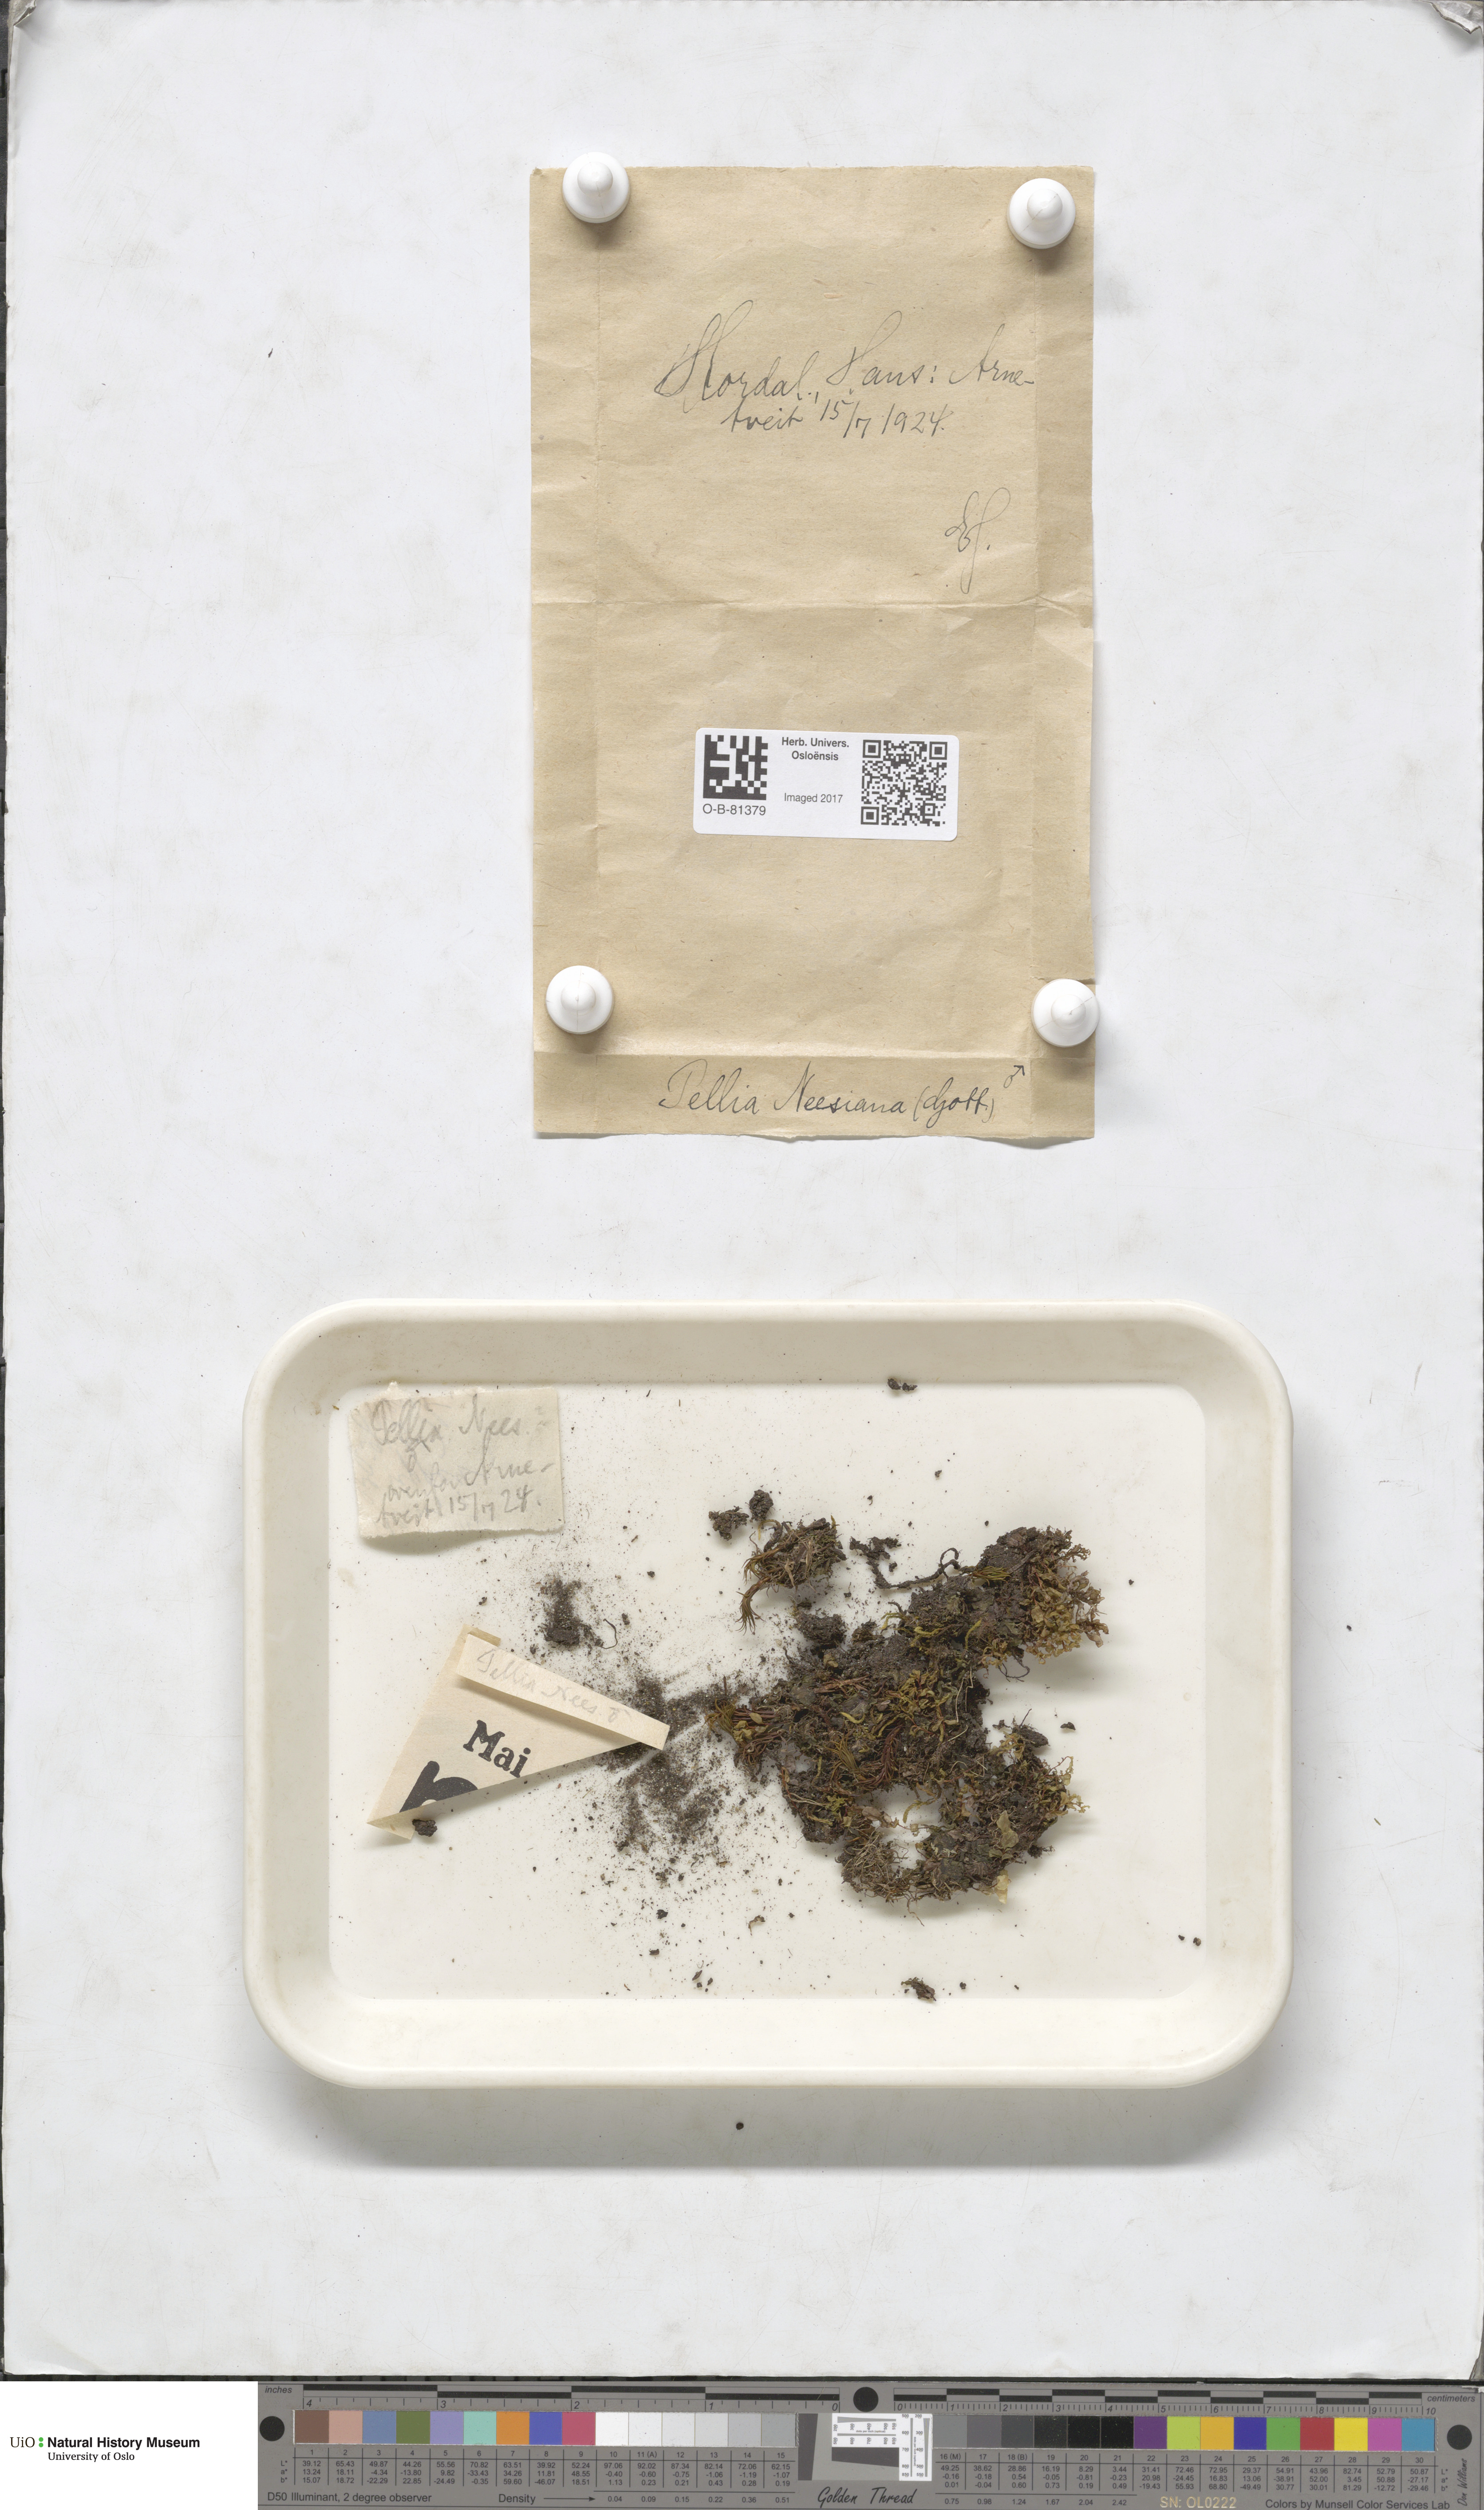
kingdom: Plantae
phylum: Marchantiophyta
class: Jungermanniopsida
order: Pelliales
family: Pelliaceae
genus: Pellia
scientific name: Pellia neesiana
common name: Nees  pellia
